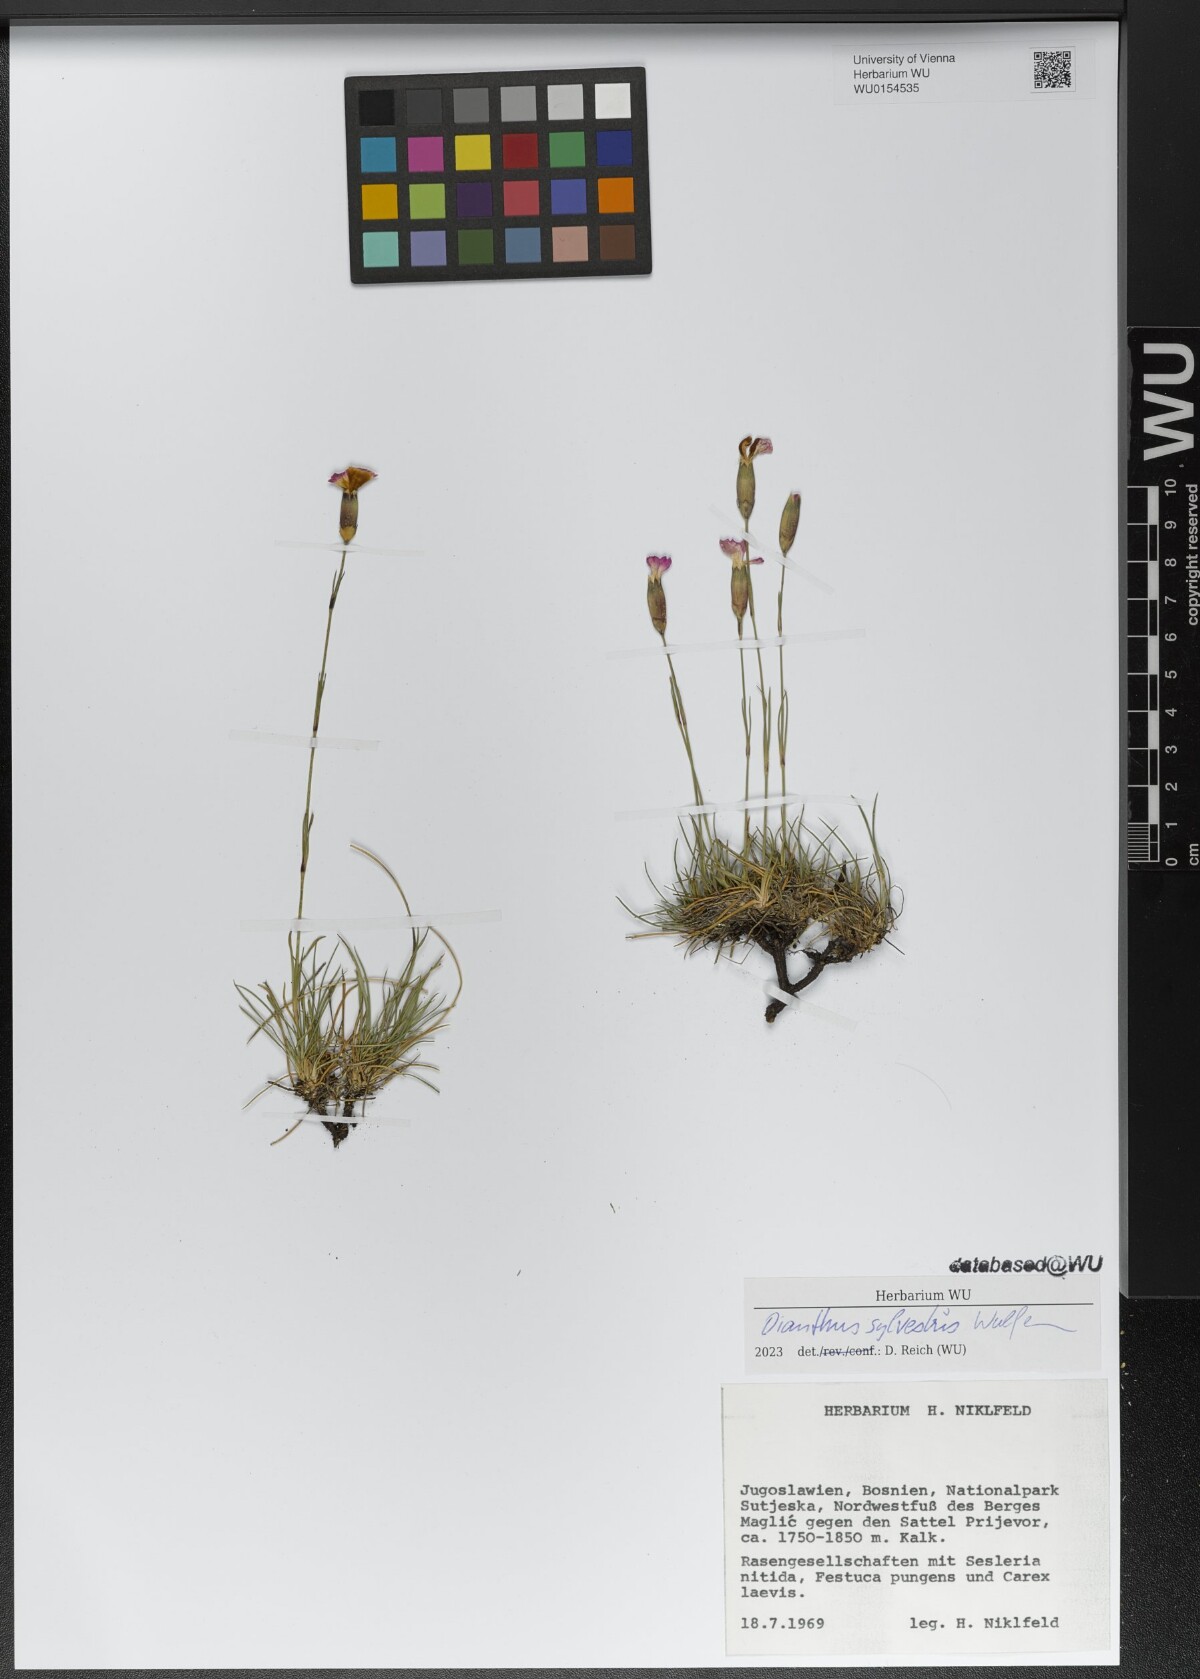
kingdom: Plantae
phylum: Tracheophyta
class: Magnoliopsida
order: Caryophyllales
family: Caryophyllaceae
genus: Dianthus
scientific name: Dianthus sylvestris
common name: Wood pink
